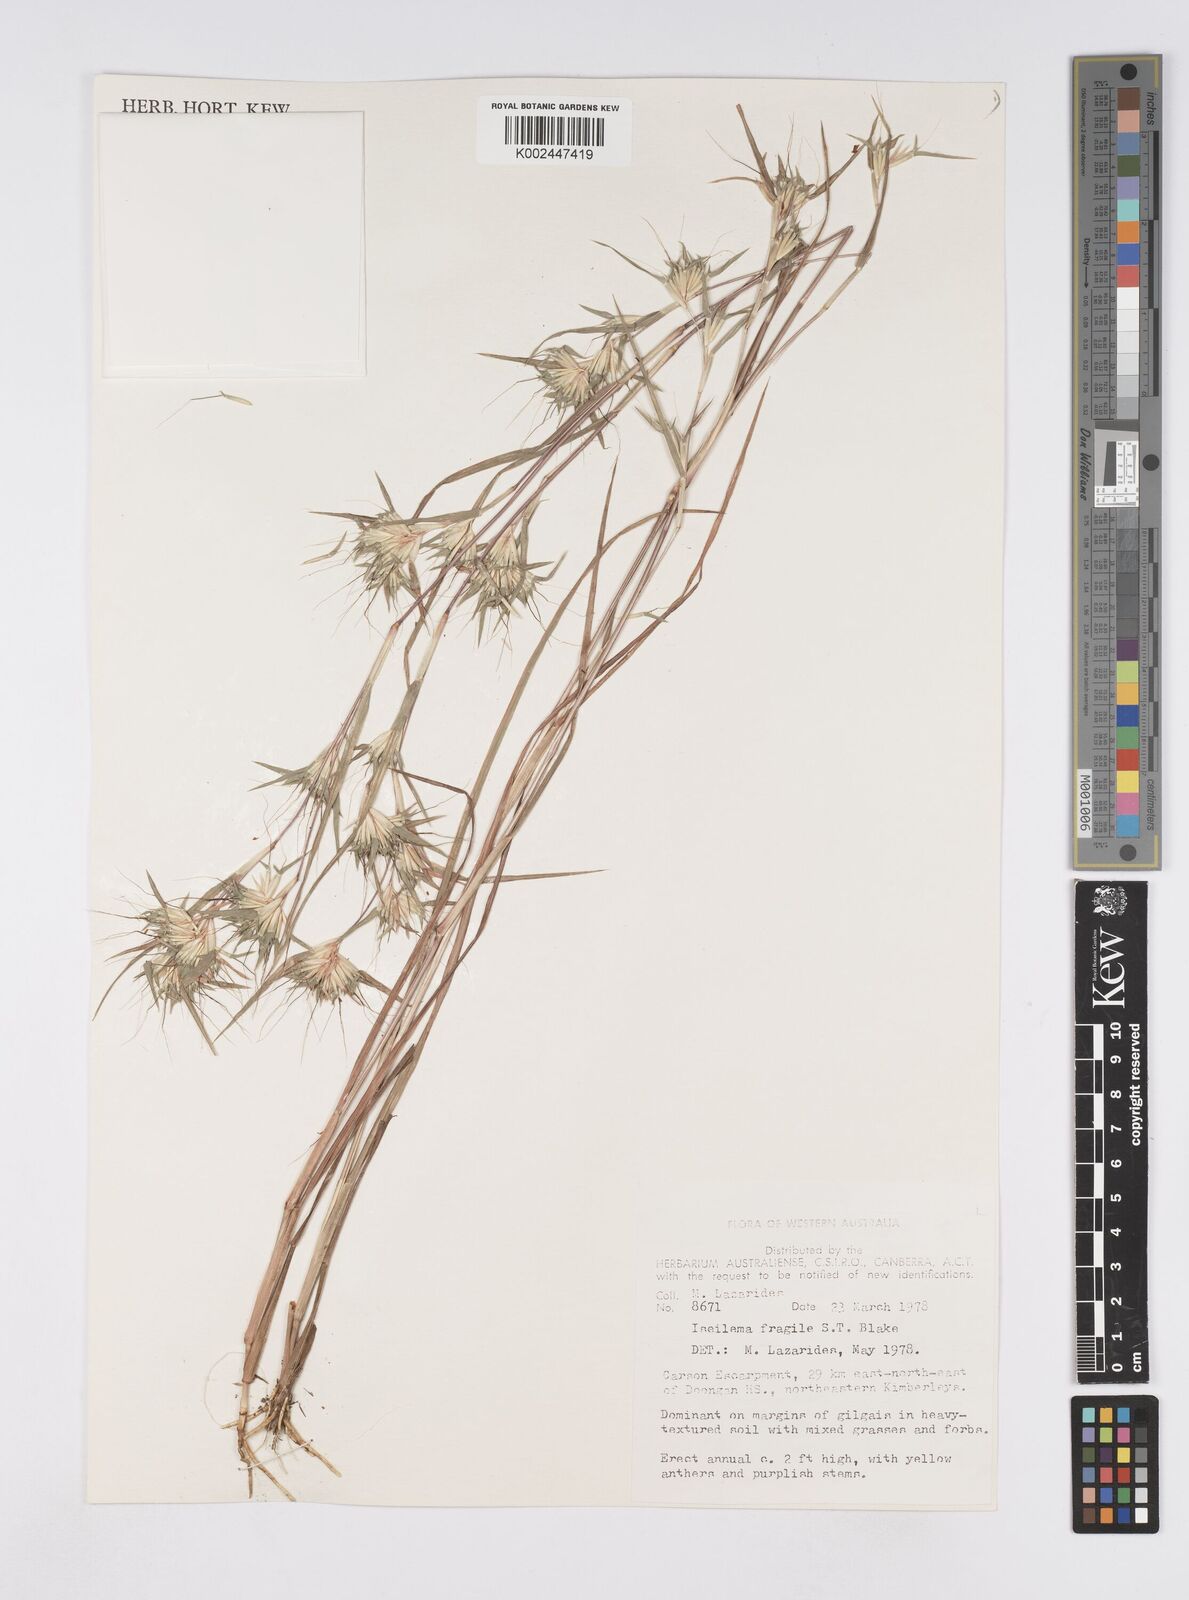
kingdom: Plantae
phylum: Tracheophyta
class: Liliopsida
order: Poales
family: Poaceae
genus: Iseilema
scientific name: Iseilema fragile
